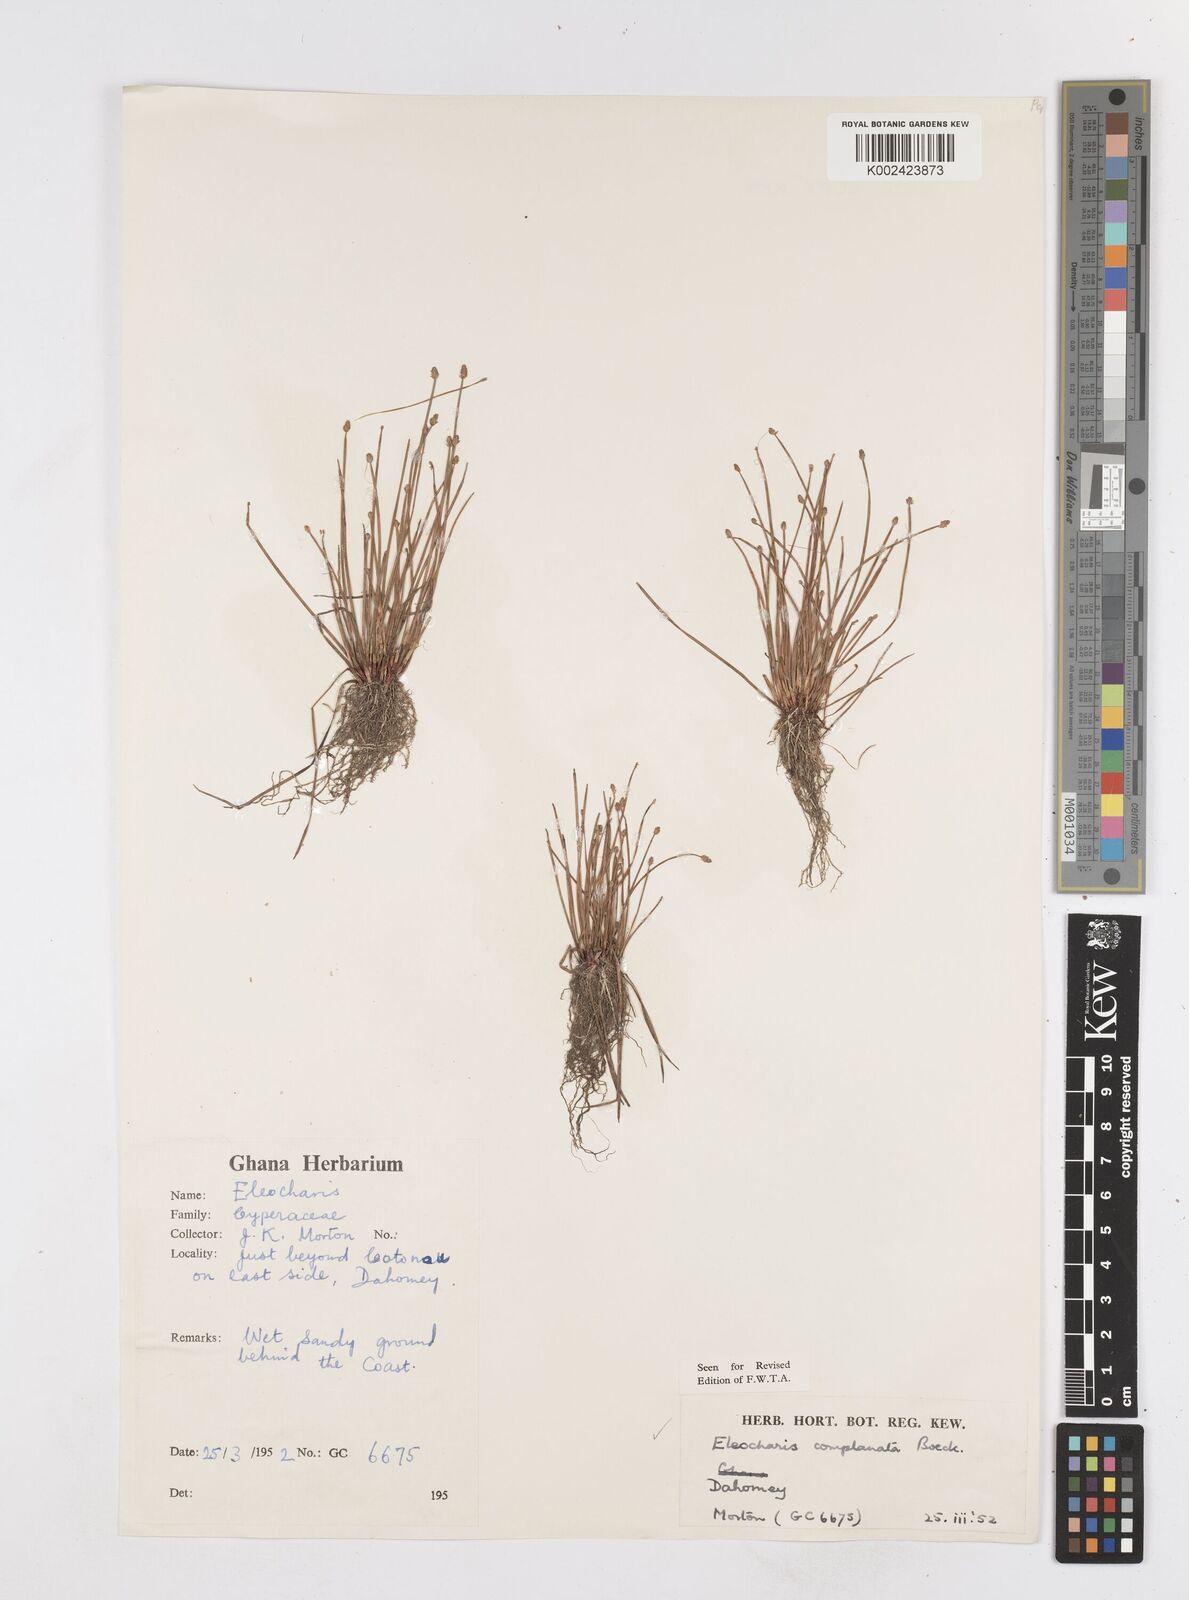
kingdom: Plantae
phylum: Tracheophyta
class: Liliopsida
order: Poales
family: Cyperaceae
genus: Eleocharis
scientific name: Eleocharis complanata
